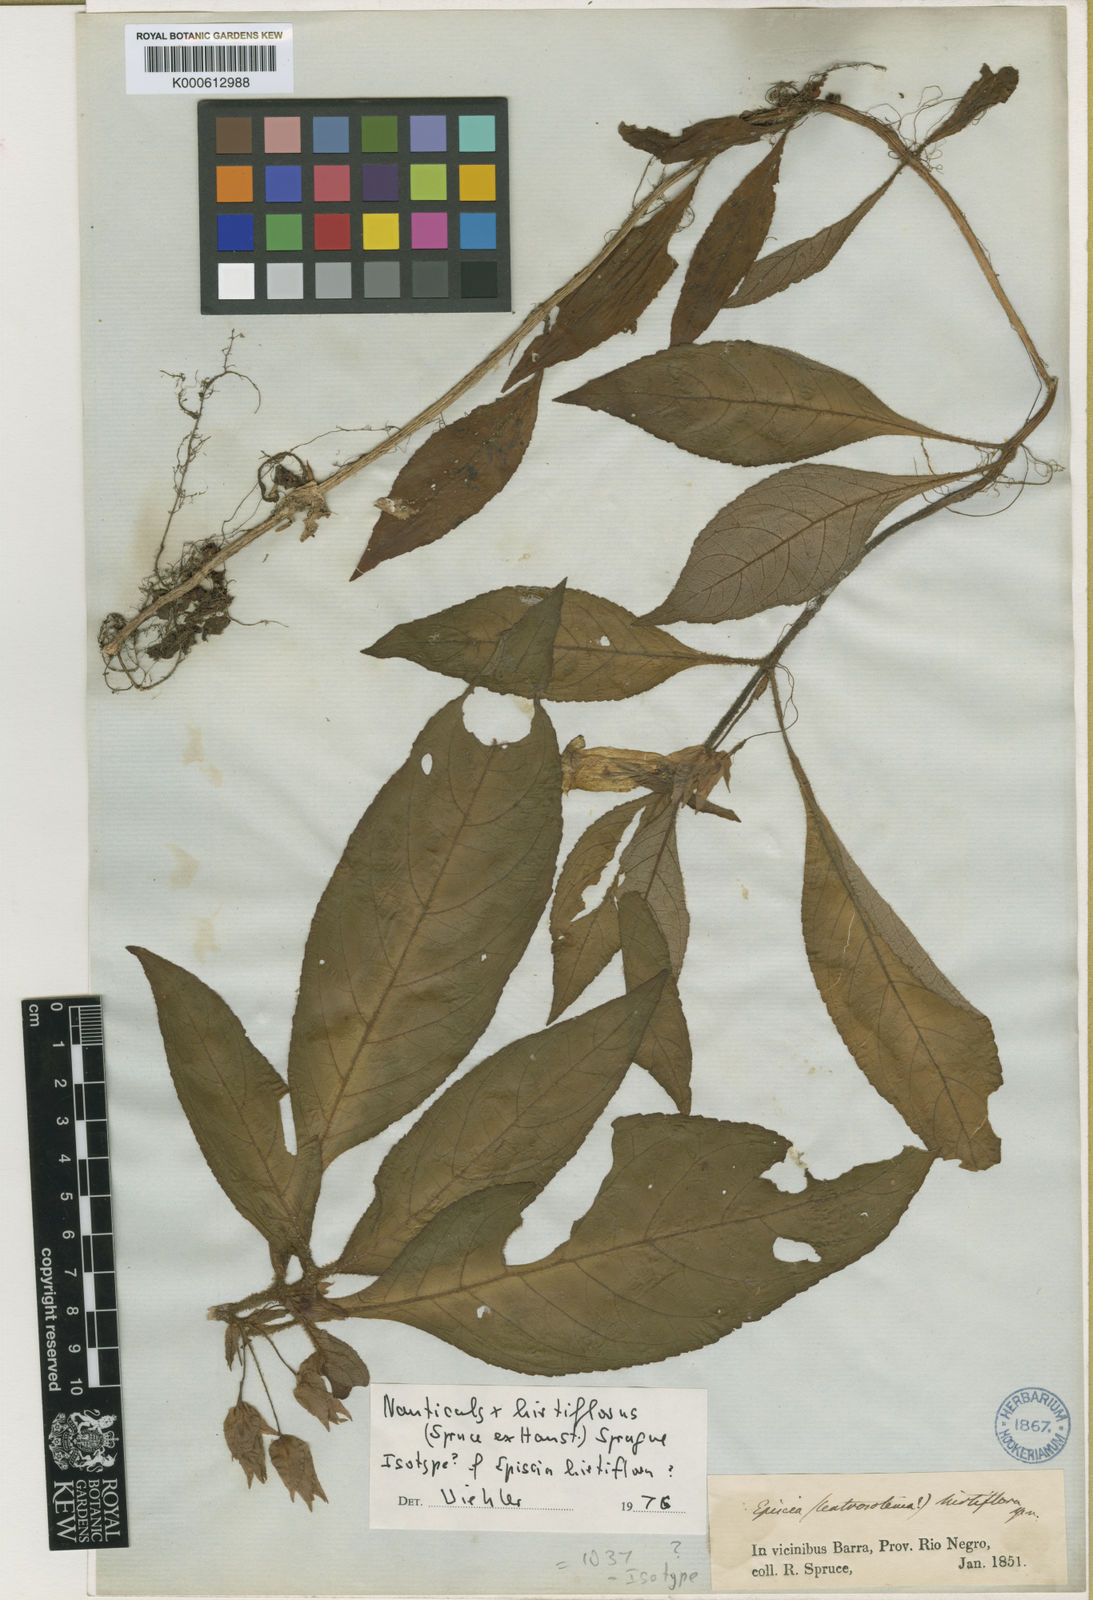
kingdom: Plantae
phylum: Tracheophyta
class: Magnoliopsida
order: Lamiales
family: Gesneriaceae
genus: Nautilocalyx
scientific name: Nautilocalyx hirtiflorus
